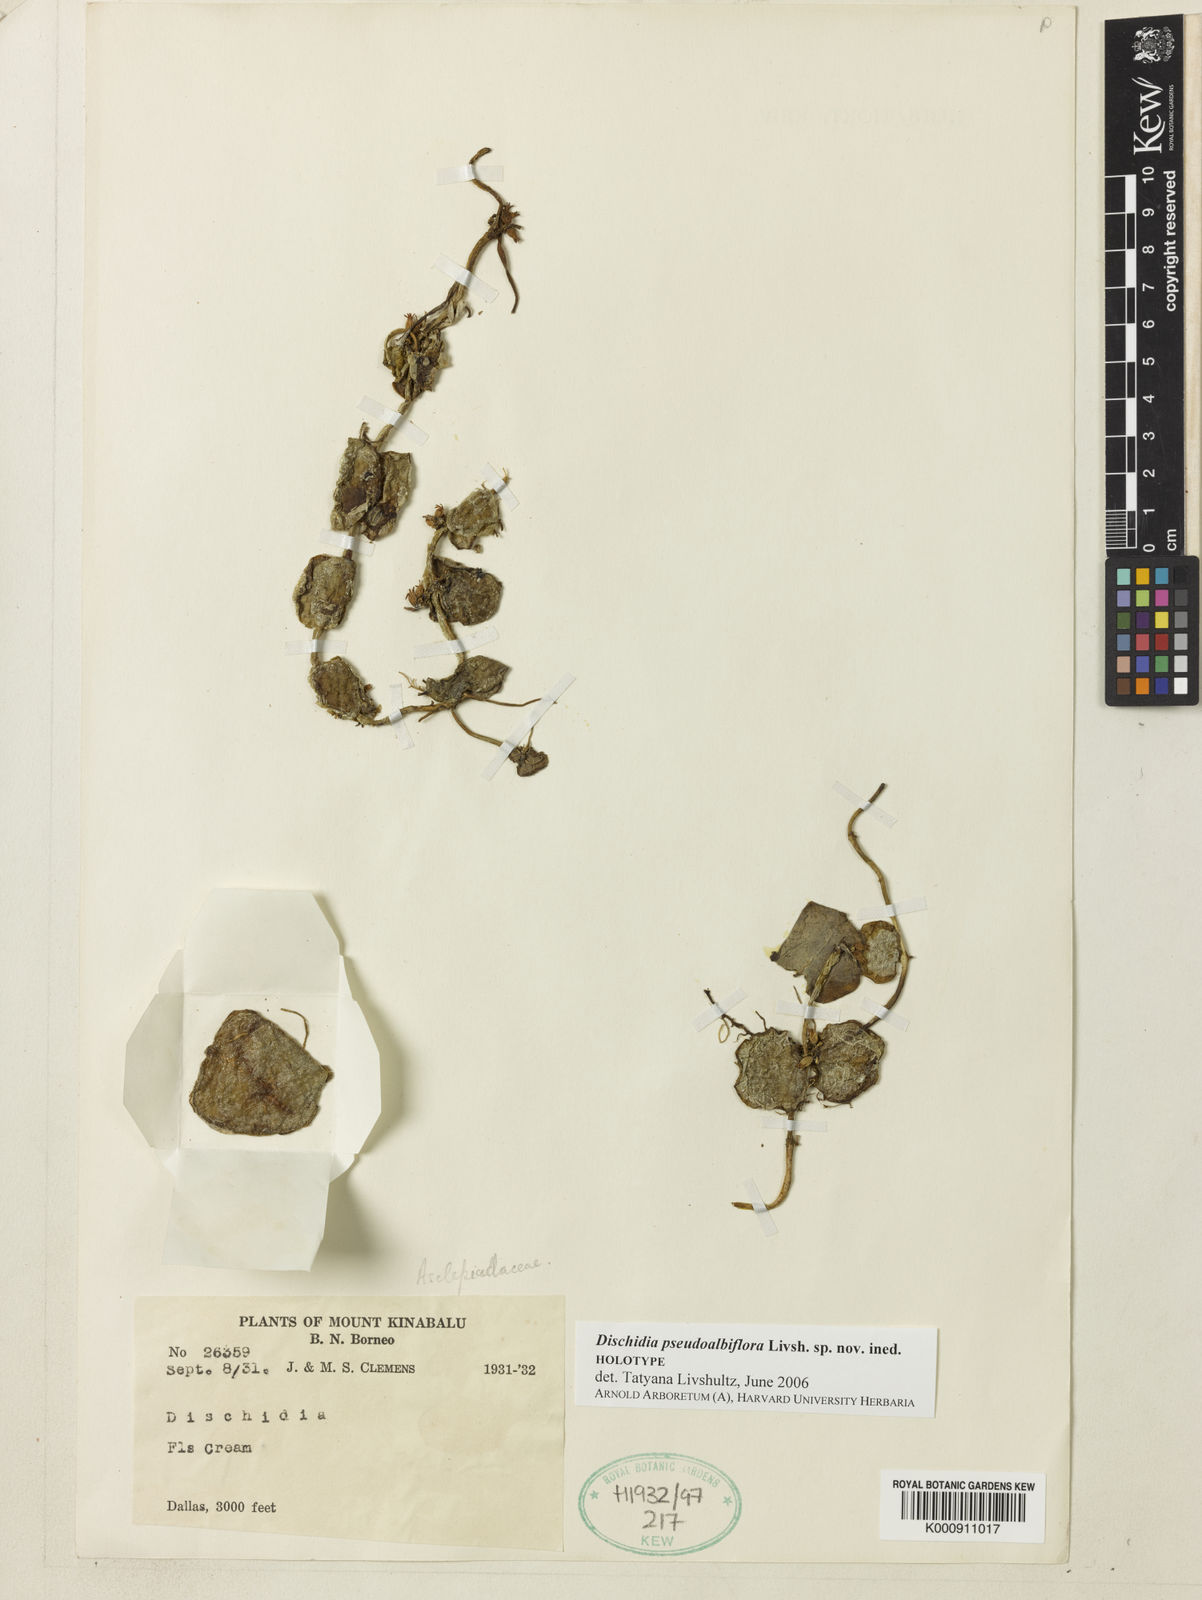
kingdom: Plantae
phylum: Tracheophyta
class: Magnoliopsida
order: Gentianales
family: Apocynaceae
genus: Dischidia
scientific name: Dischidia
